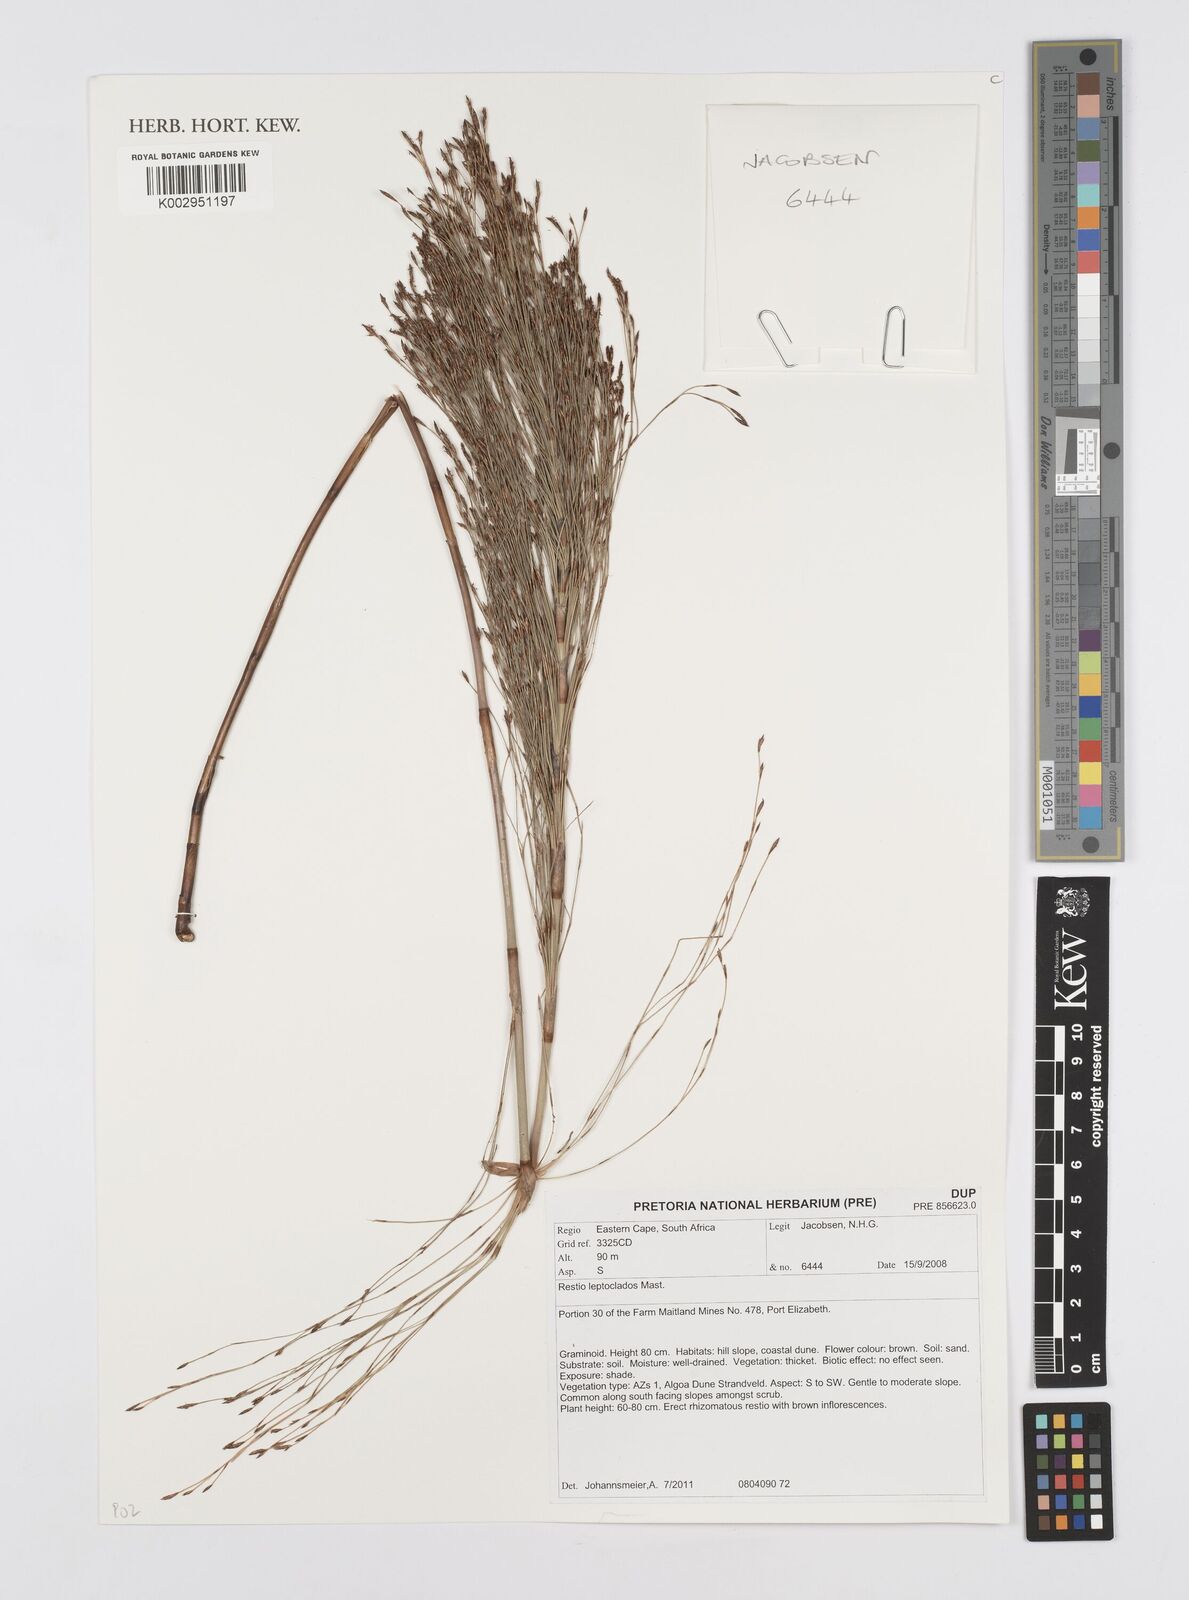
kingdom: Plantae
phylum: Tracheophyta
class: Liliopsida
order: Poales
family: Restionaceae
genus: Restio
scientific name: Restio leptoclados
